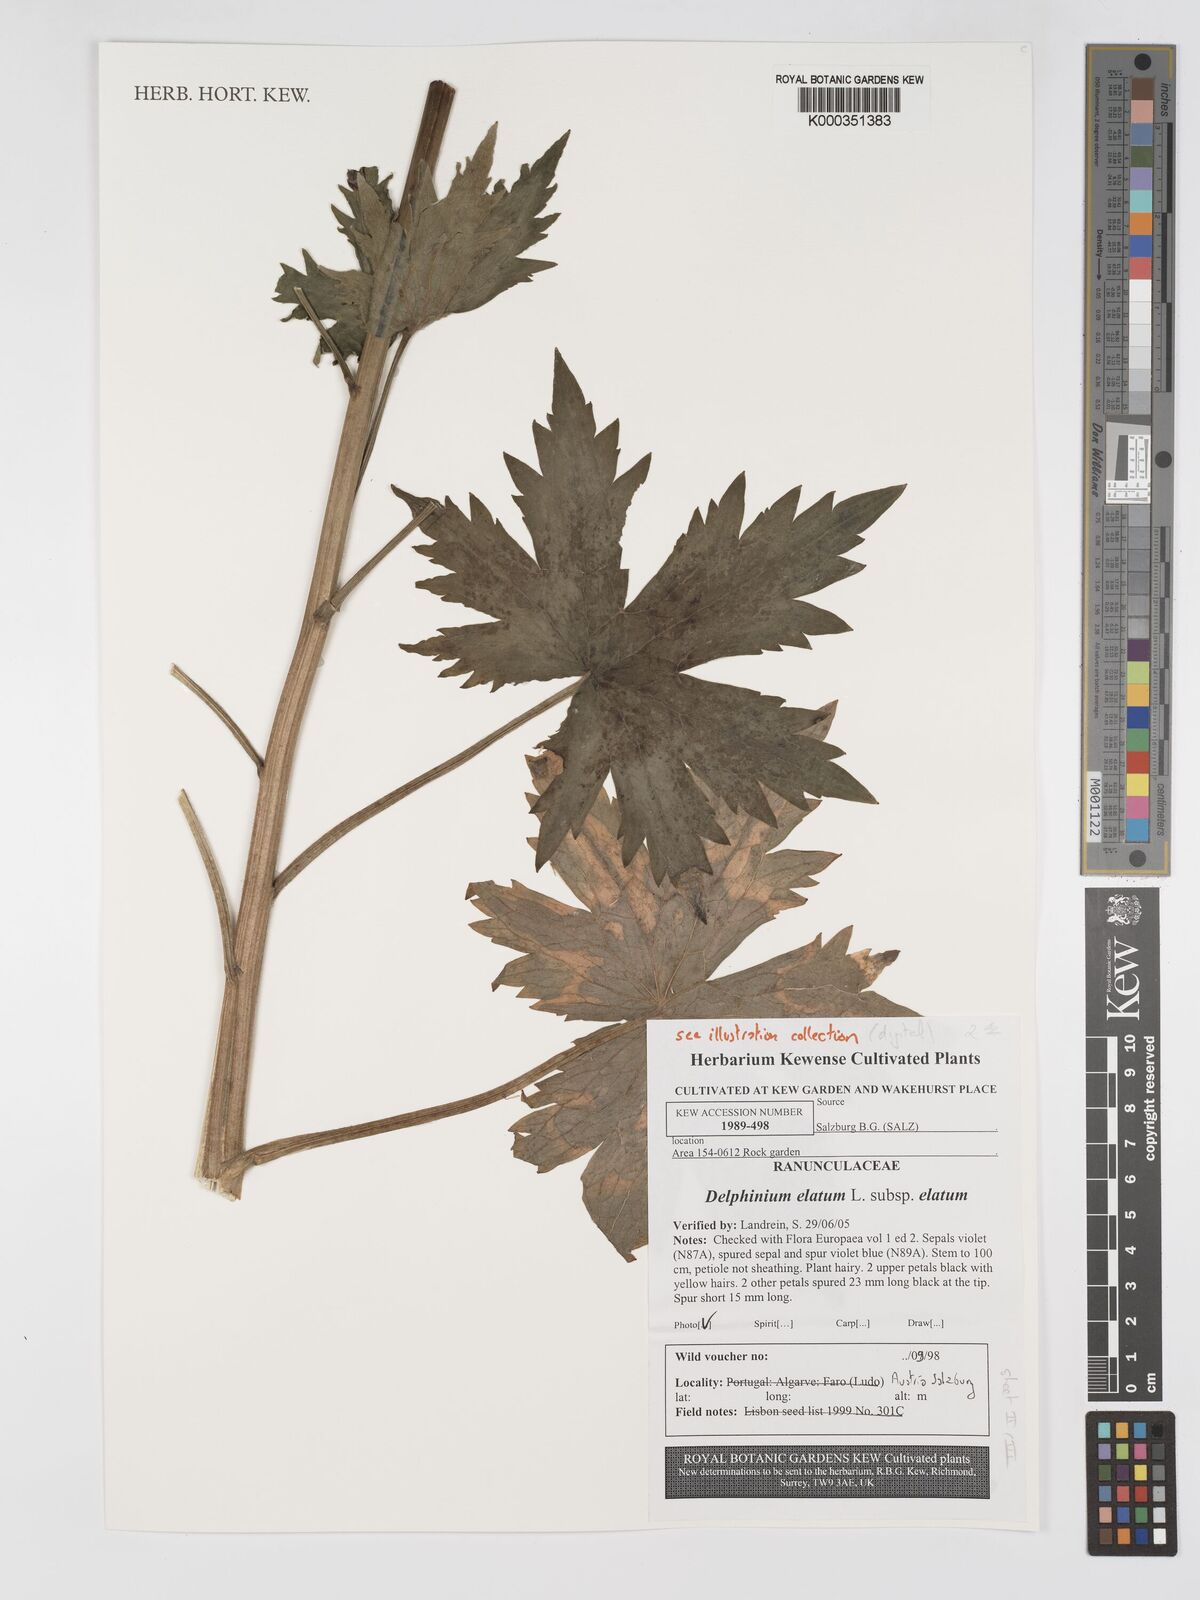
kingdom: Plantae
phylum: Tracheophyta
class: Magnoliopsida
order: Ranunculales
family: Ranunculaceae
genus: Delphinium
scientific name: Delphinium elatum
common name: Candle larkspur
